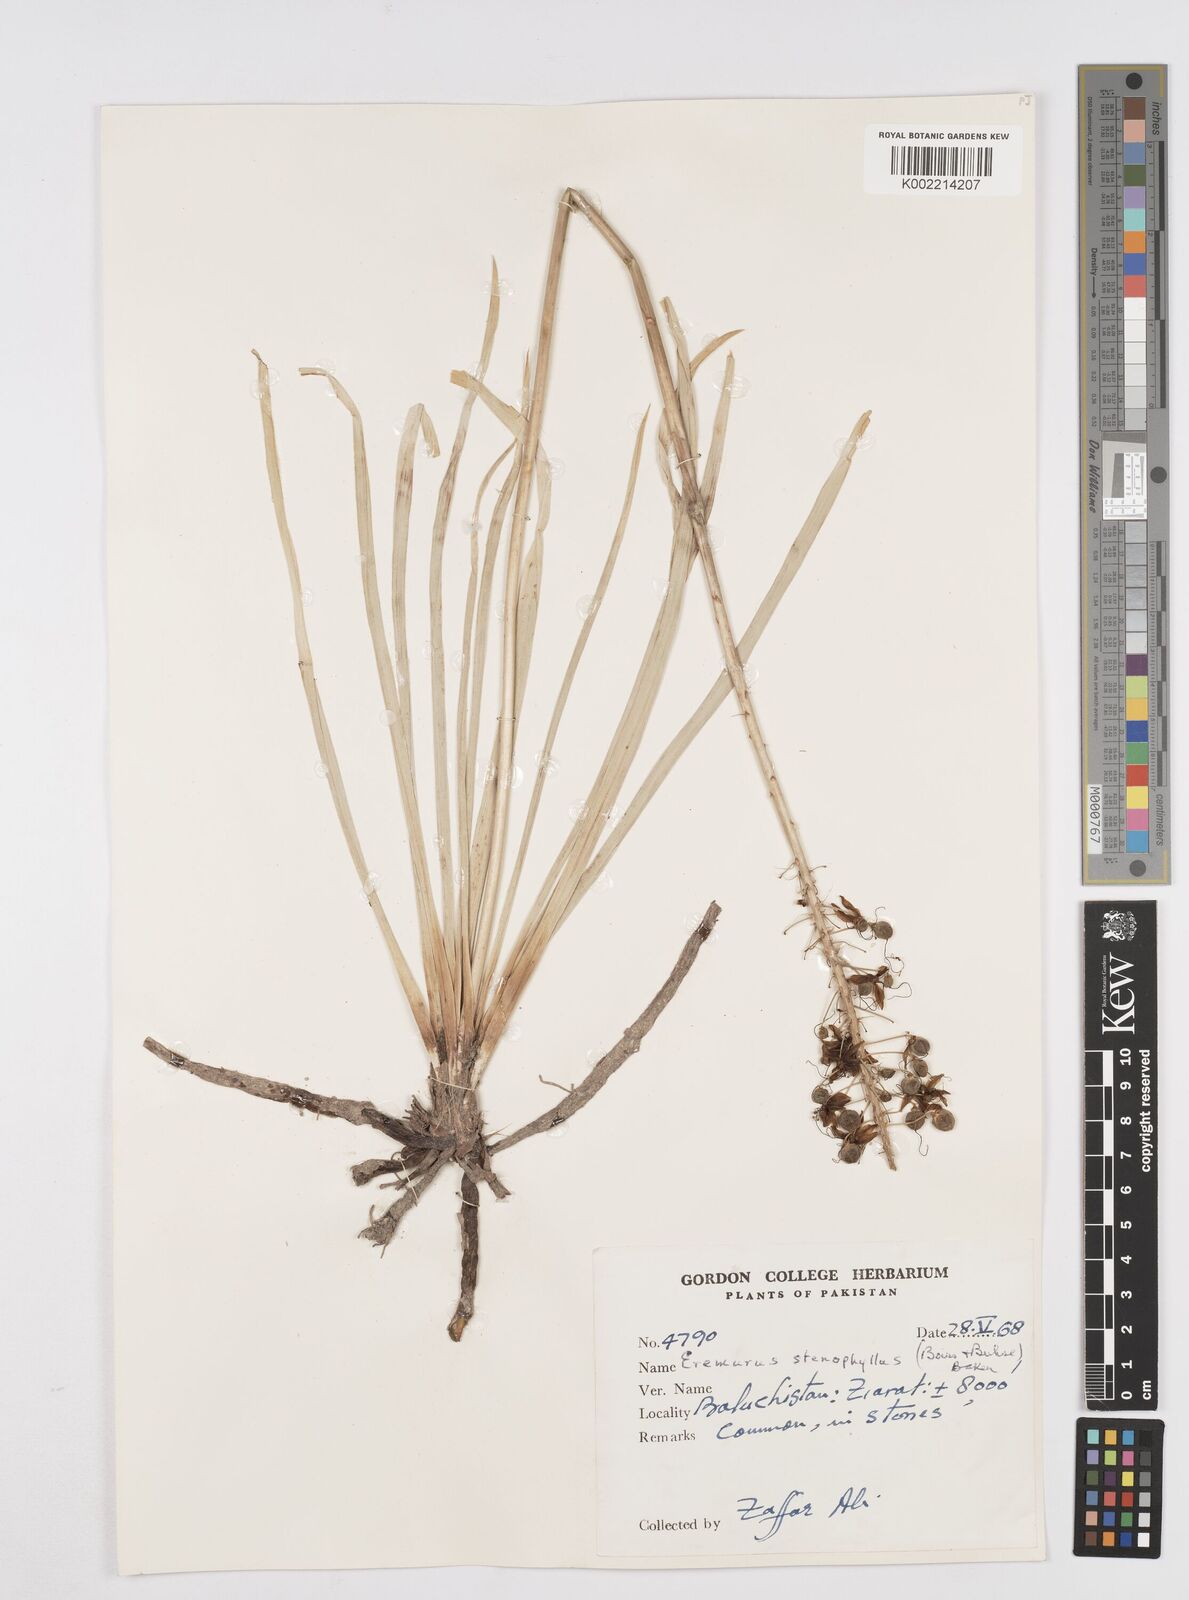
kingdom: Plantae
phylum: Tracheophyta
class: Liliopsida
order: Asparagales
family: Asphodelaceae
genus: Eremurus
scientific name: Eremurus stenophyllus
